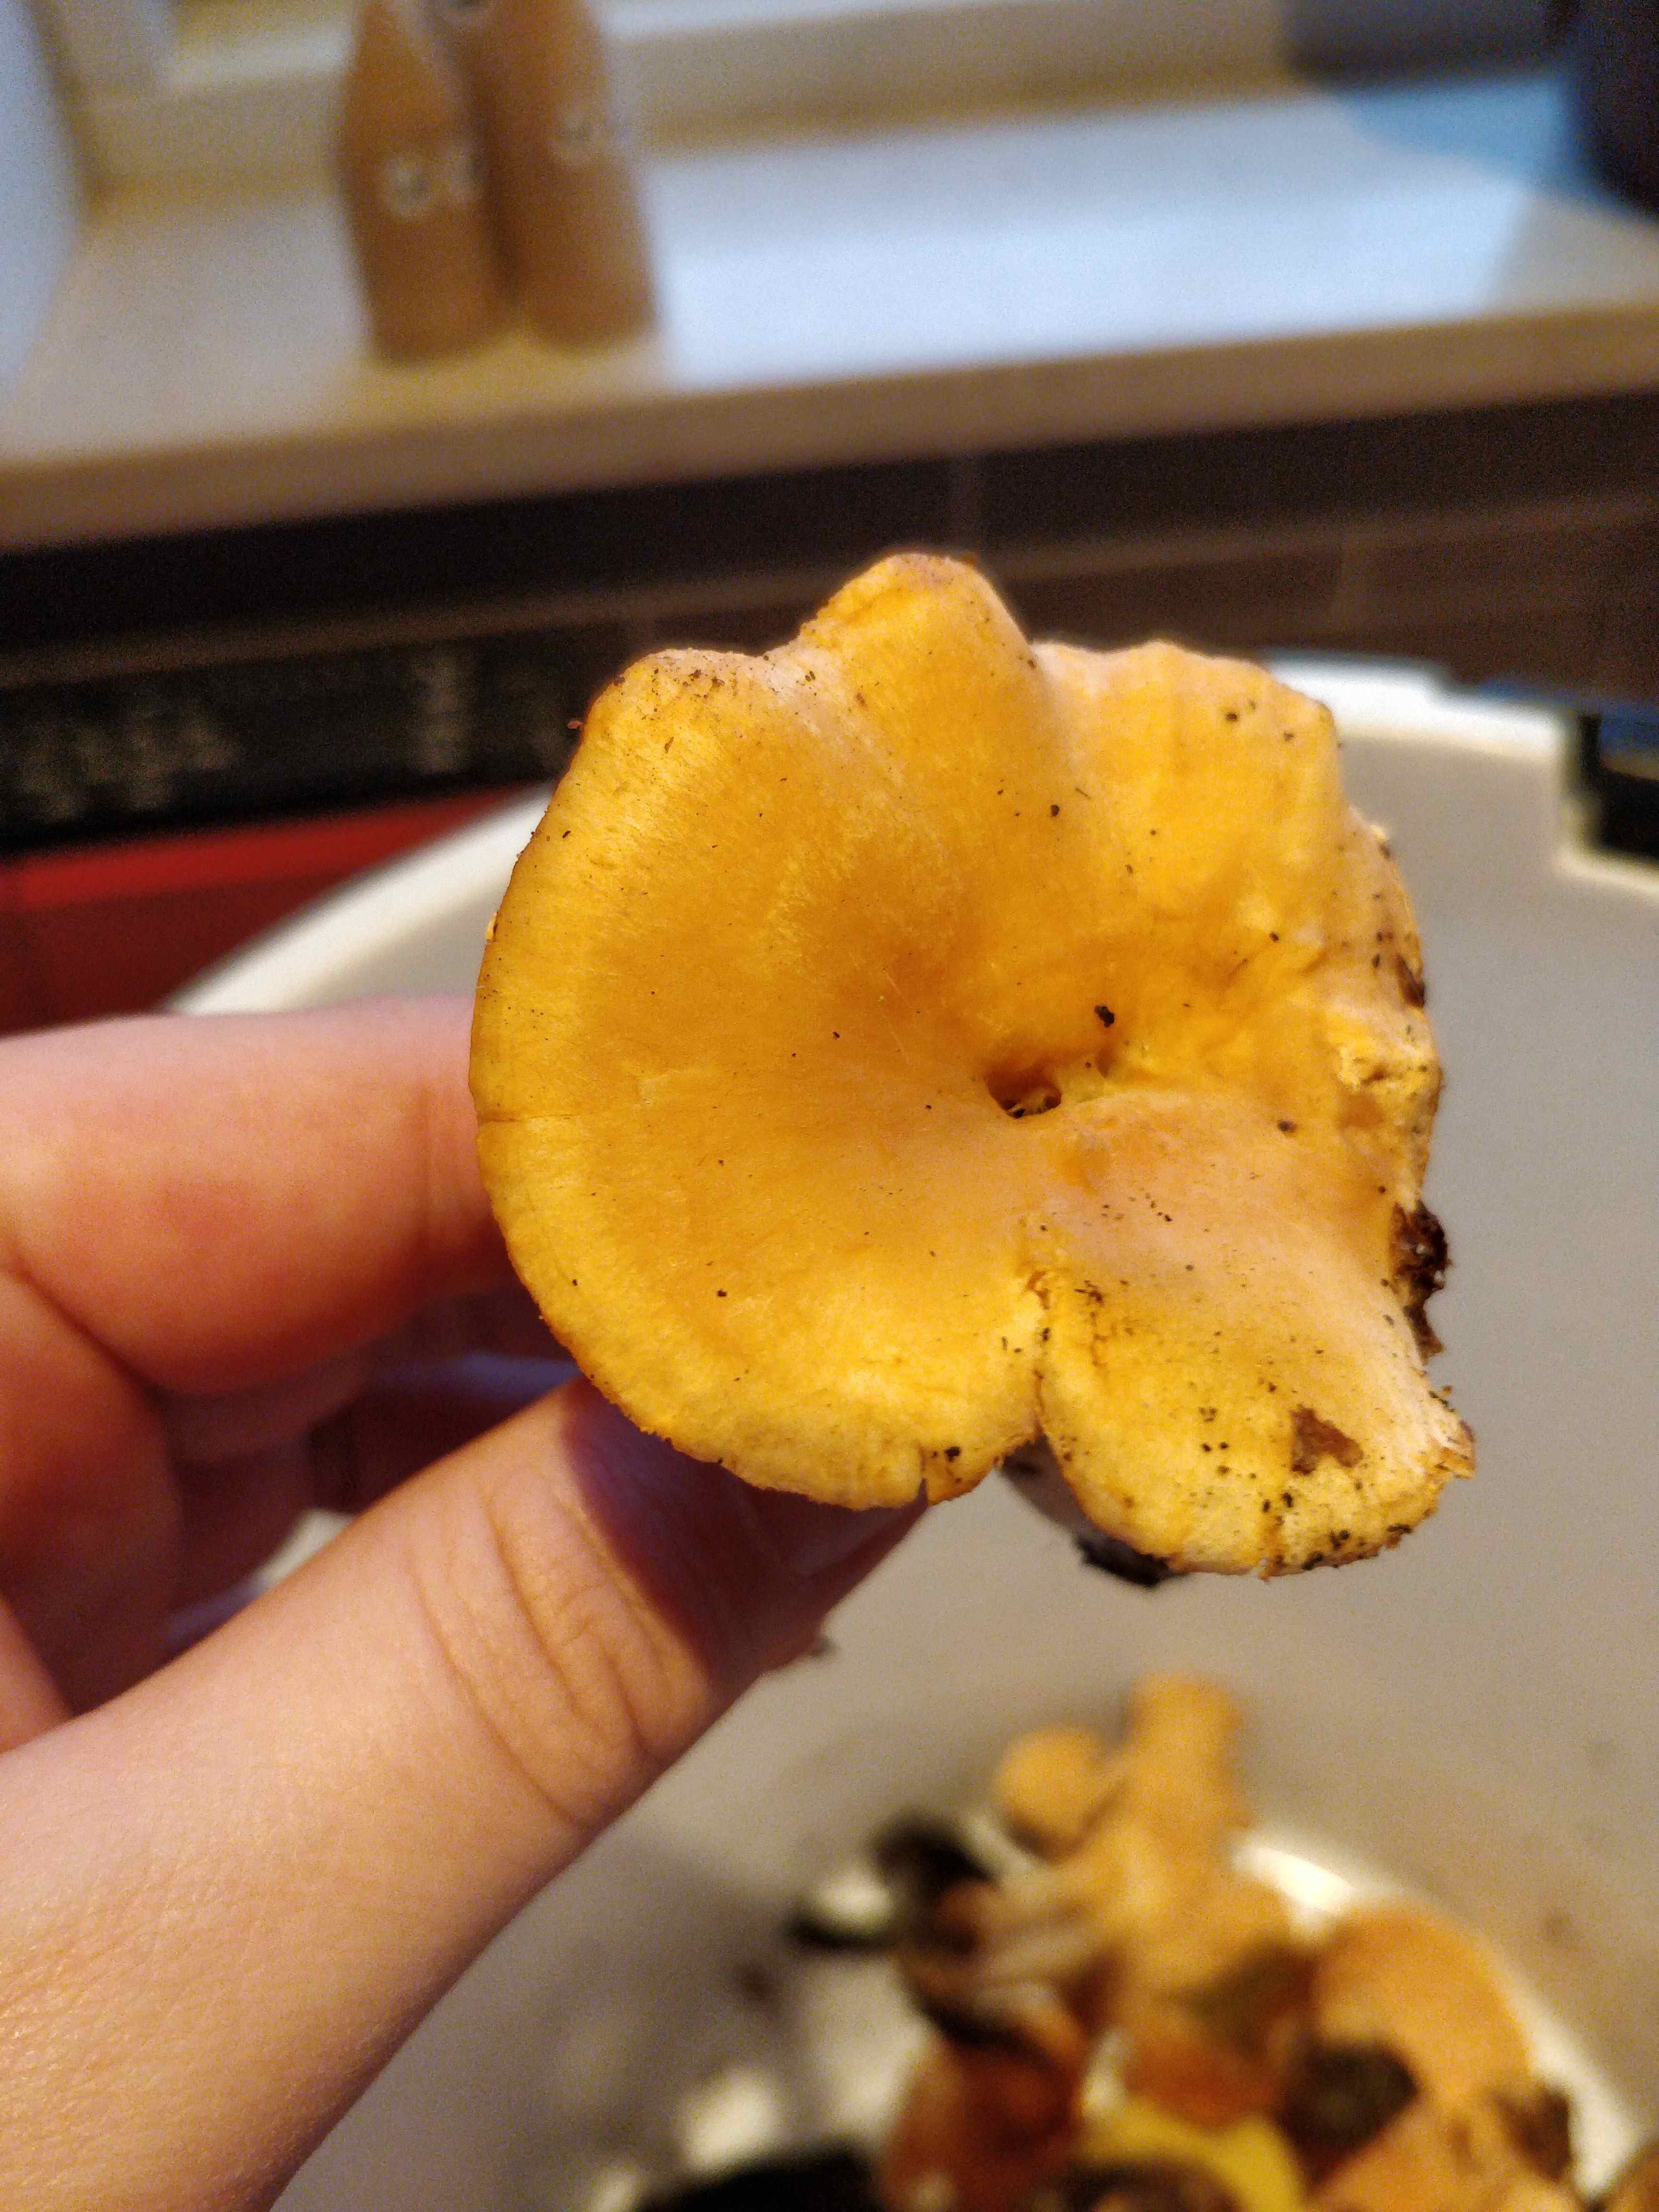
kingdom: Fungi
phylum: Basidiomycota
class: Agaricomycetes
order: Cantharellales
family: Hydnaceae
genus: Hydnum
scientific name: Hydnum
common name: pigsvamp
